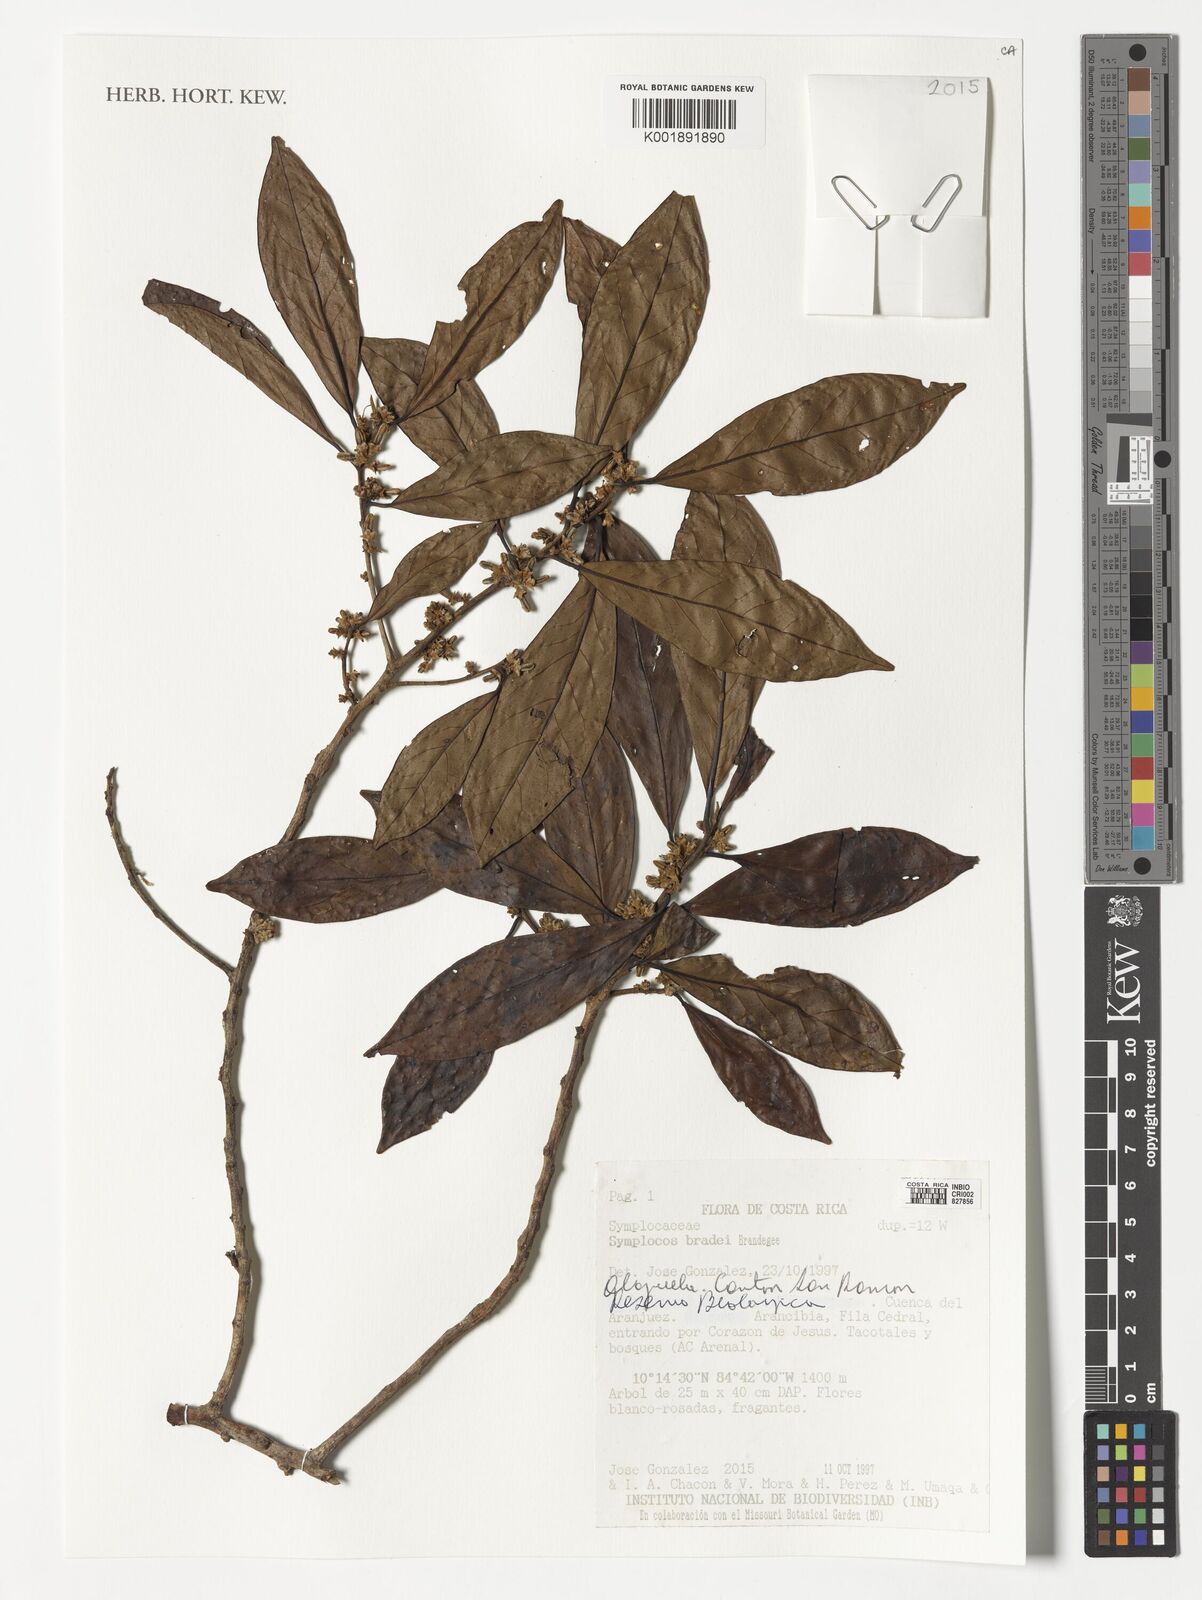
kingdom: Plantae
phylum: Tracheophyta
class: Magnoliopsida
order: Ericales
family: Symplocaceae
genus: Symplocos
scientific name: Symplocos serrulata
